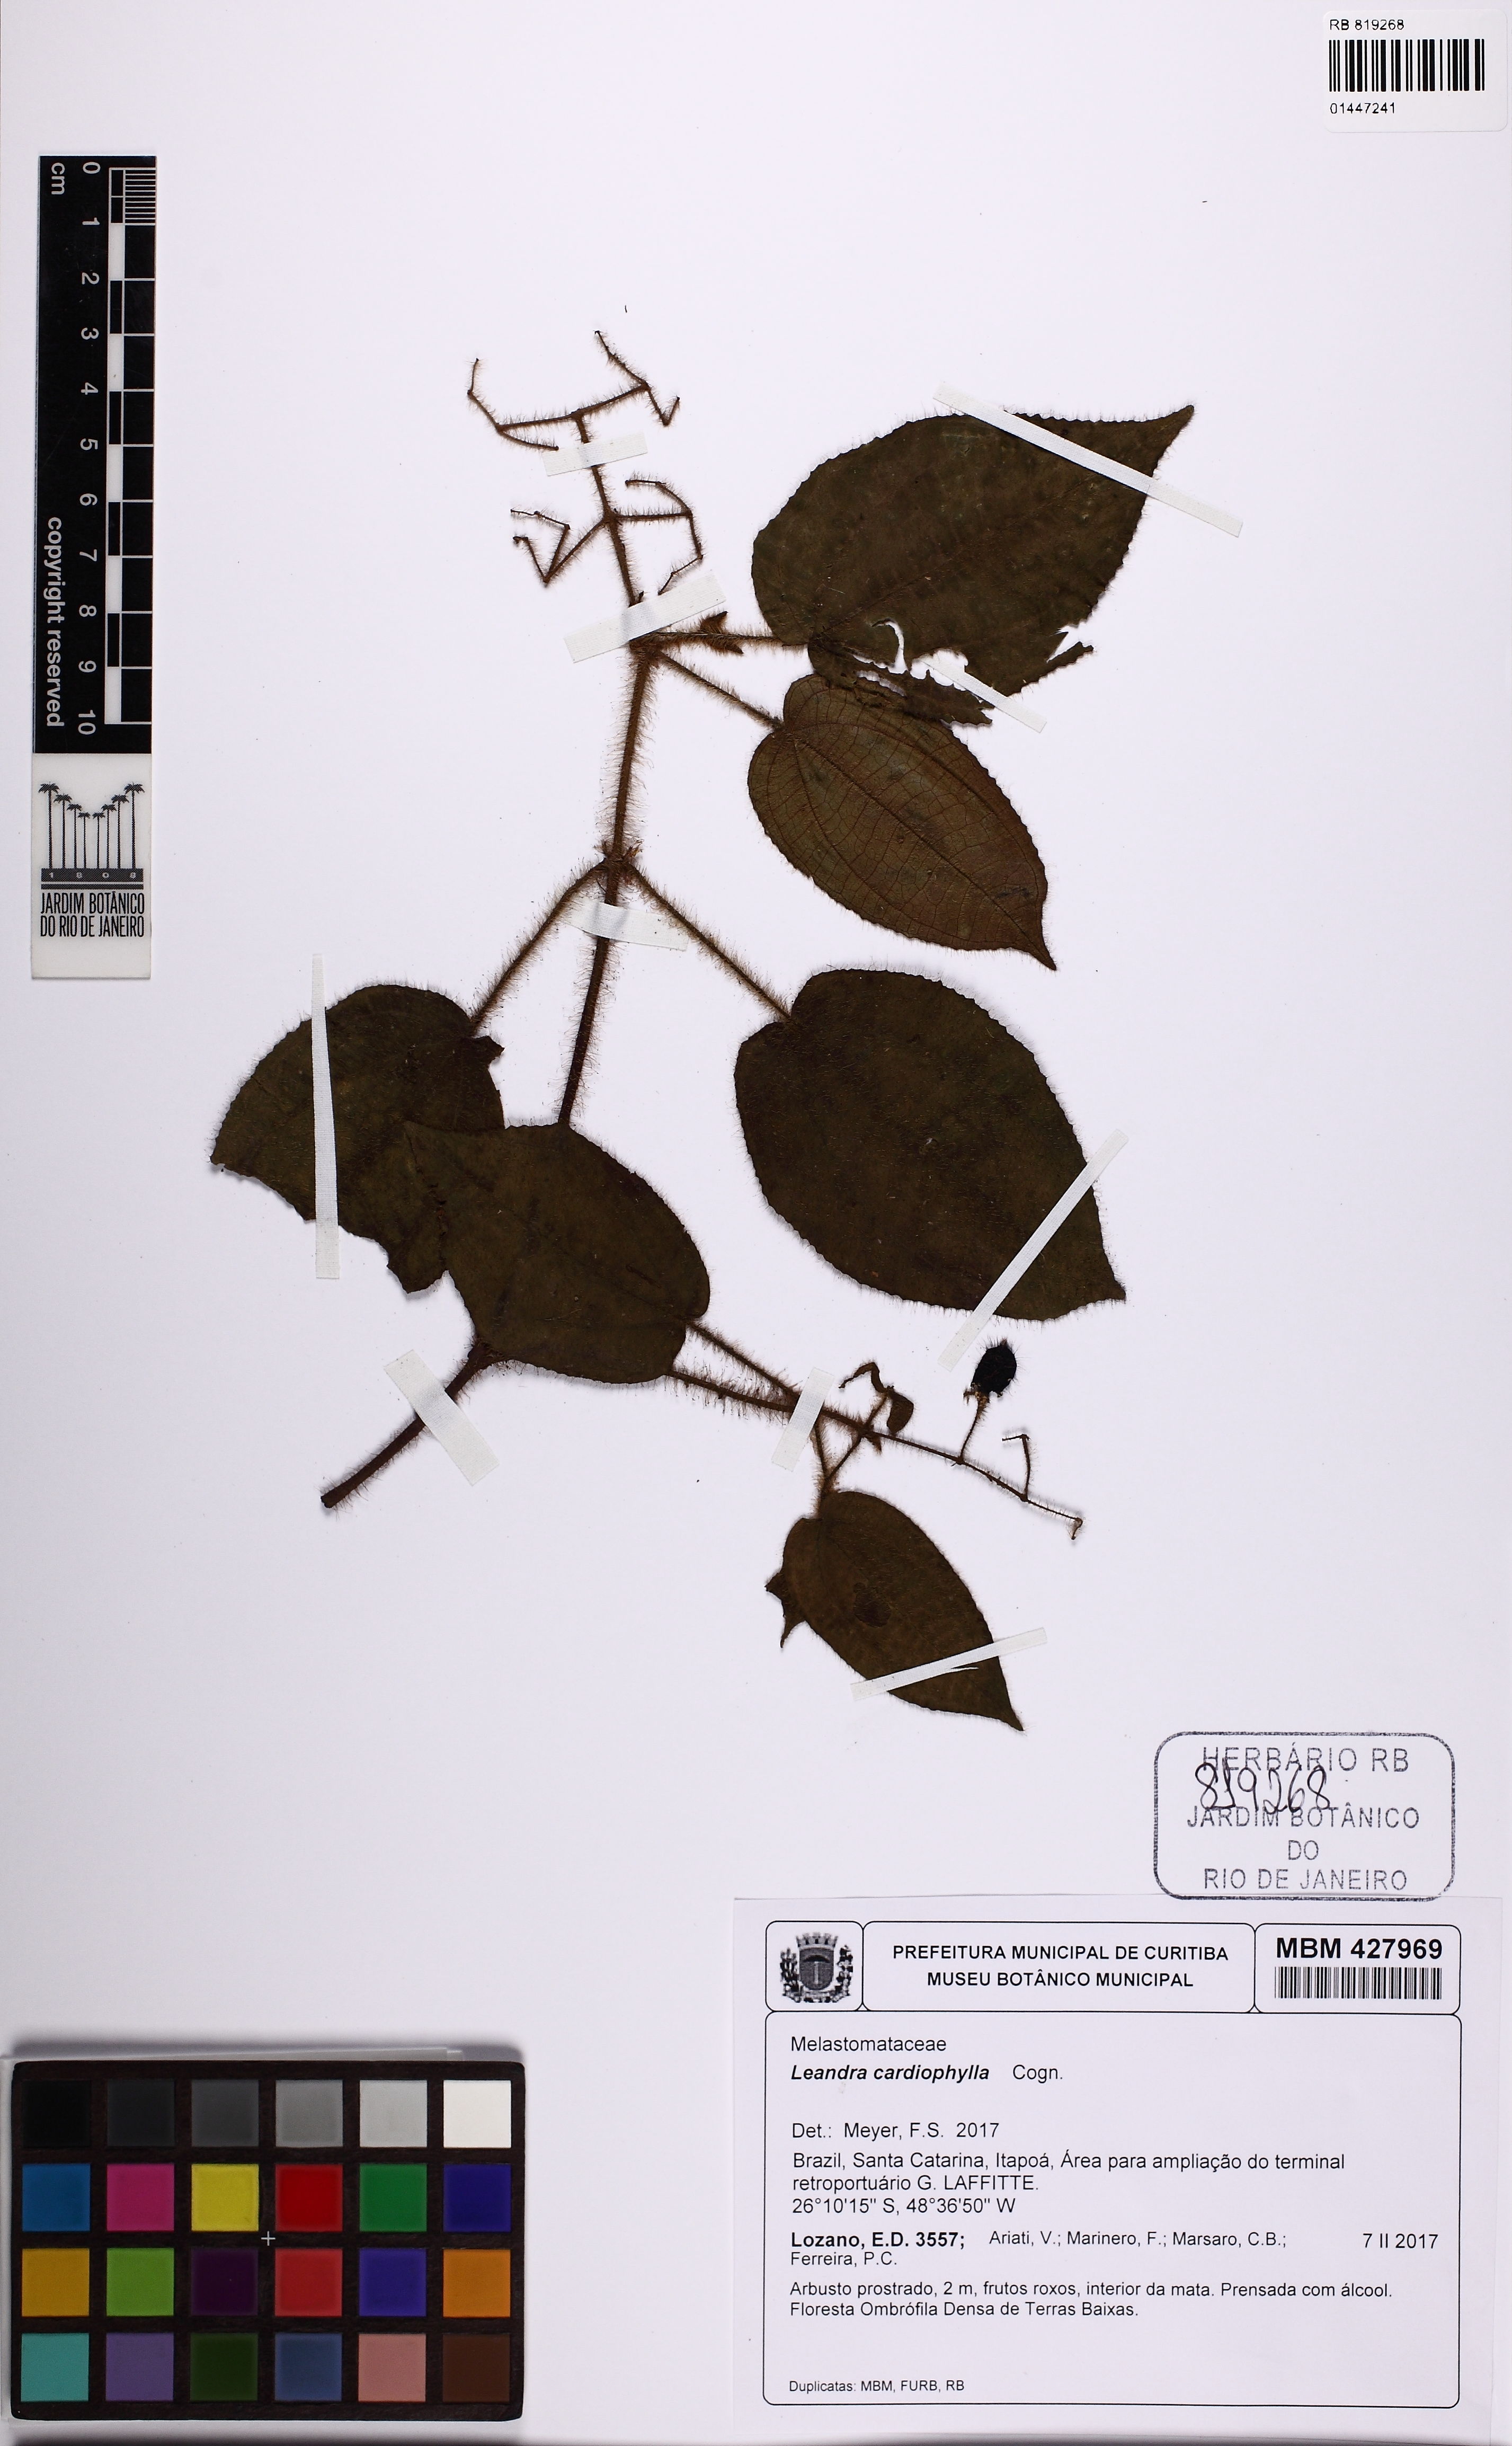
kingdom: Plantae
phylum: Tracheophyta
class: Magnoliopsida
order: Myrtales
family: Melastomataceae
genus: Miconia
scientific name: Miconia leacordifolia
